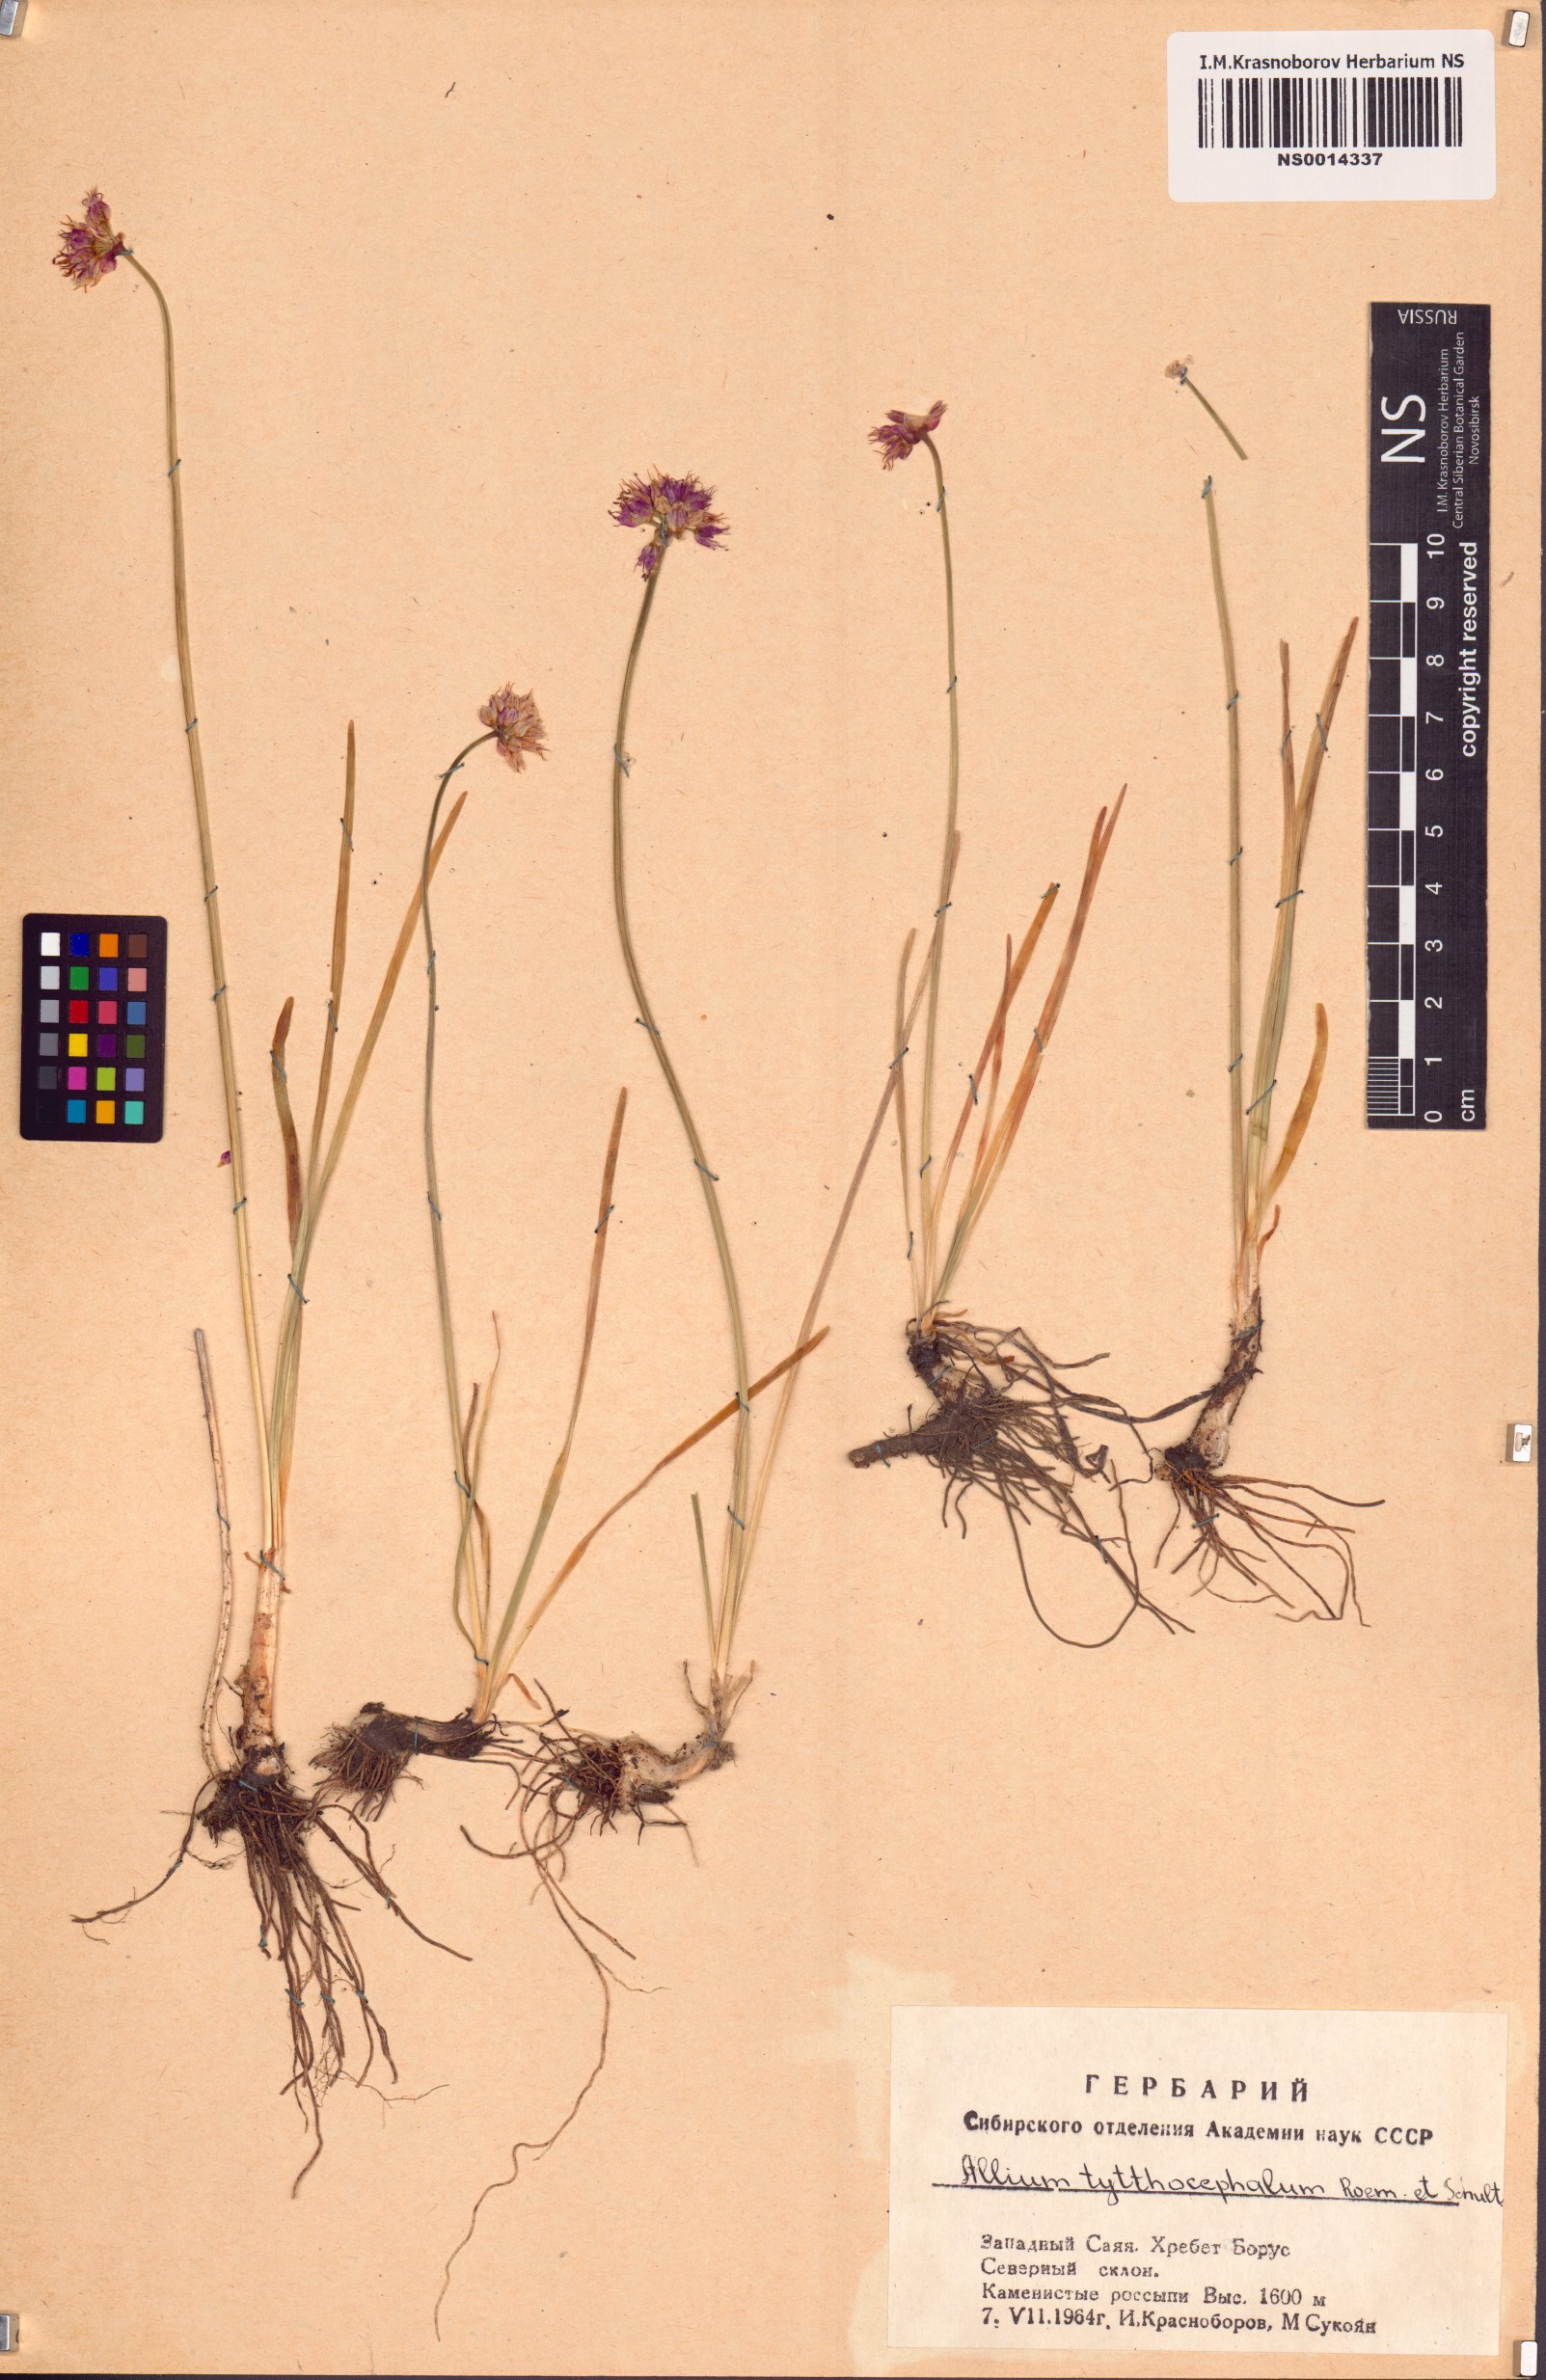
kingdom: Plantae
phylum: Tracheophyta
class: Liliopsida
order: Asparagales
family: Amaryllidaceae
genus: Allium
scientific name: Allium tytthocephalum
